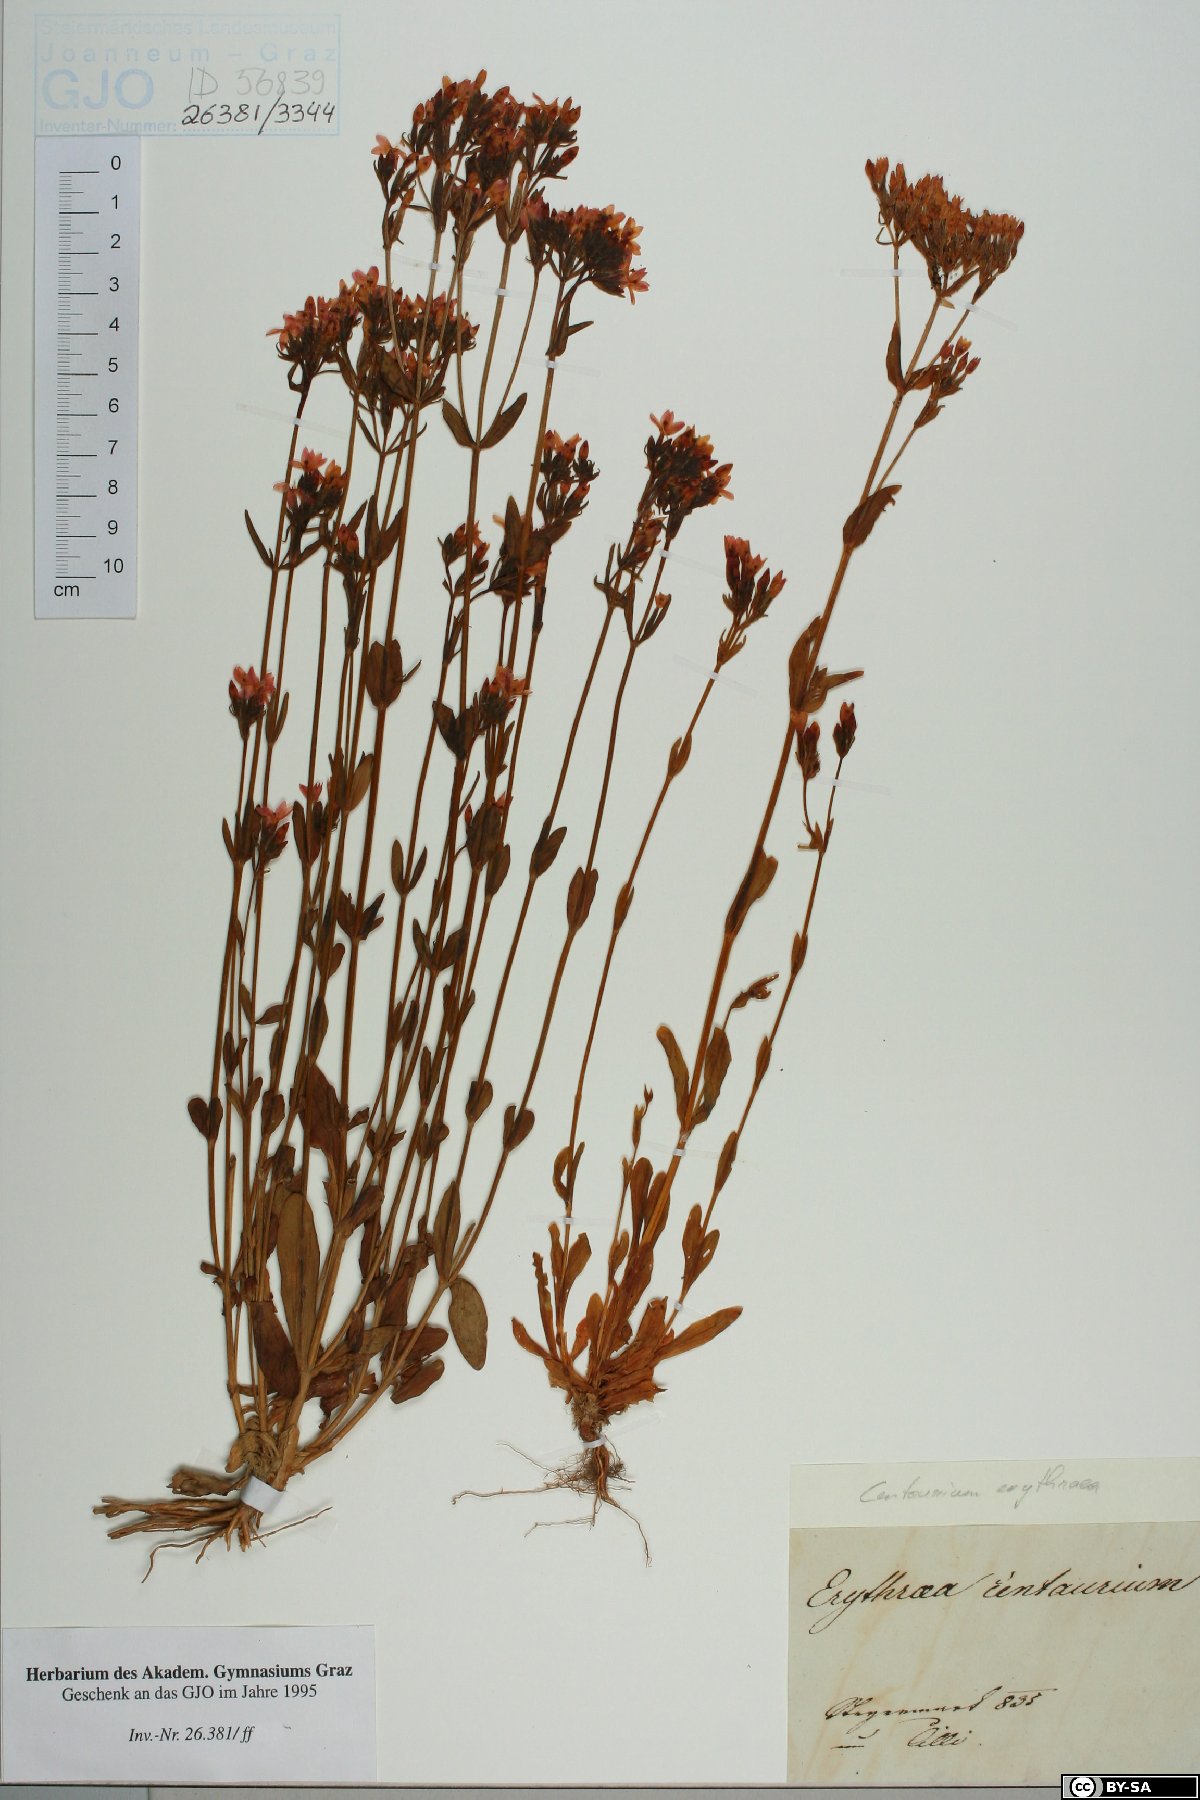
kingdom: Plantae
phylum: Tracheophyta
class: Magnoliopsida
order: Gentianales
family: Gentianaceae
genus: Centaurium
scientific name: Centaurium erythraea
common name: Common centaury
